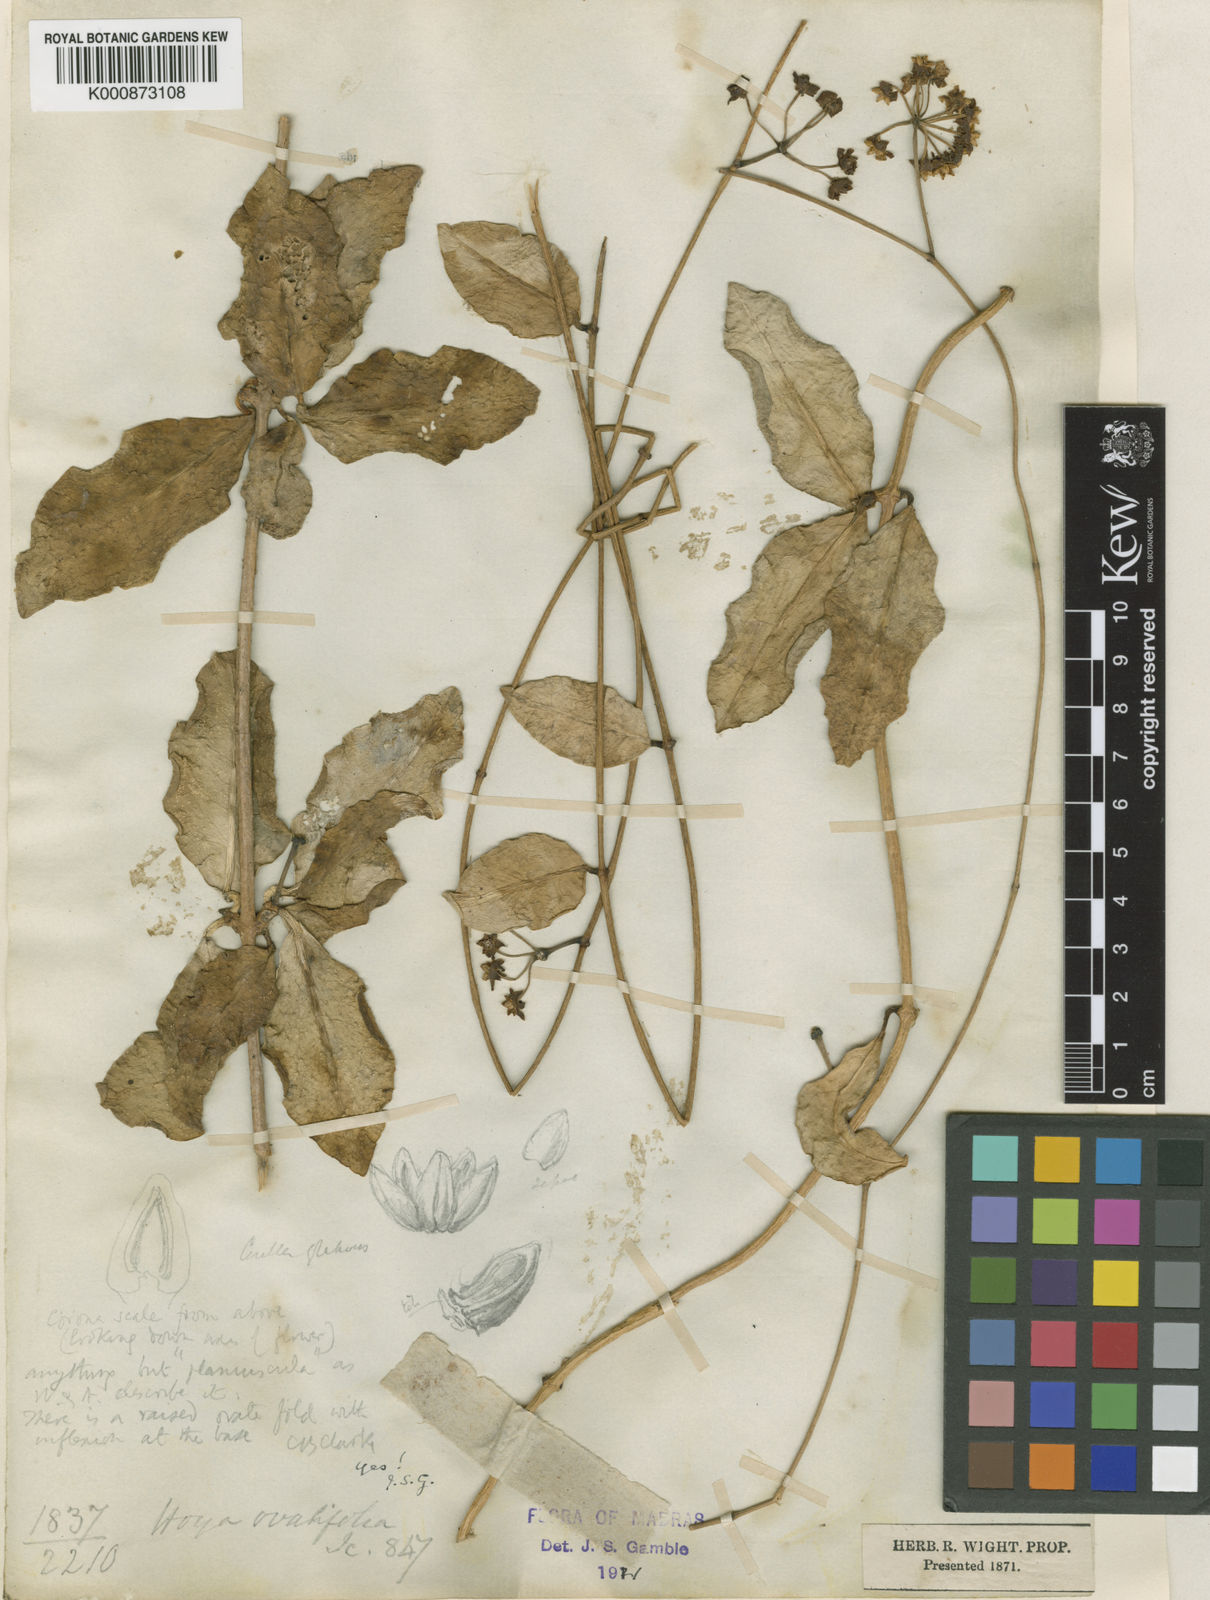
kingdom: Plantae
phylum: Tracheophyta
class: Magnoliopsida
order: Gentianales
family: Apocynaceae
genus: Hoya
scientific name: Hoya ovalifolia
